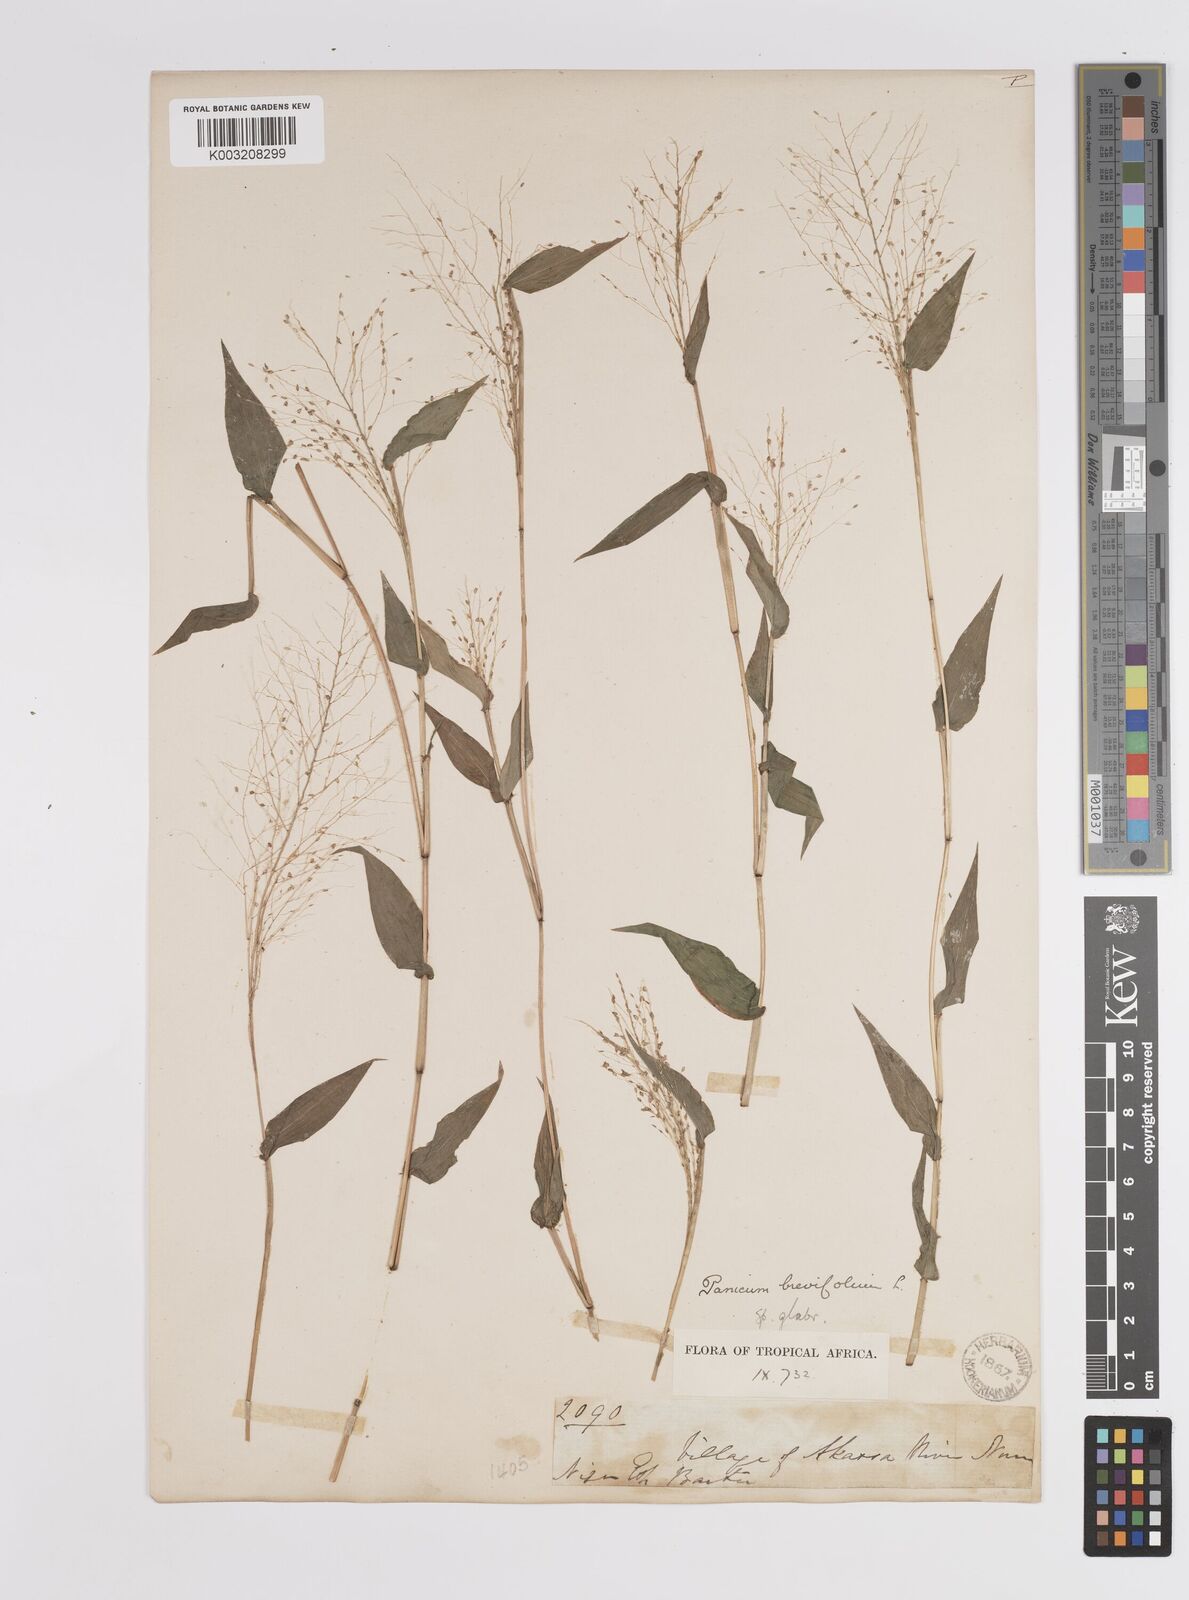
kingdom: Plantae
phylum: Tracheophyta
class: Liliopsida
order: Poales
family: Poaceae
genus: Panicum
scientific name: Panicum brevifolium
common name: Shortleaf panic grass
